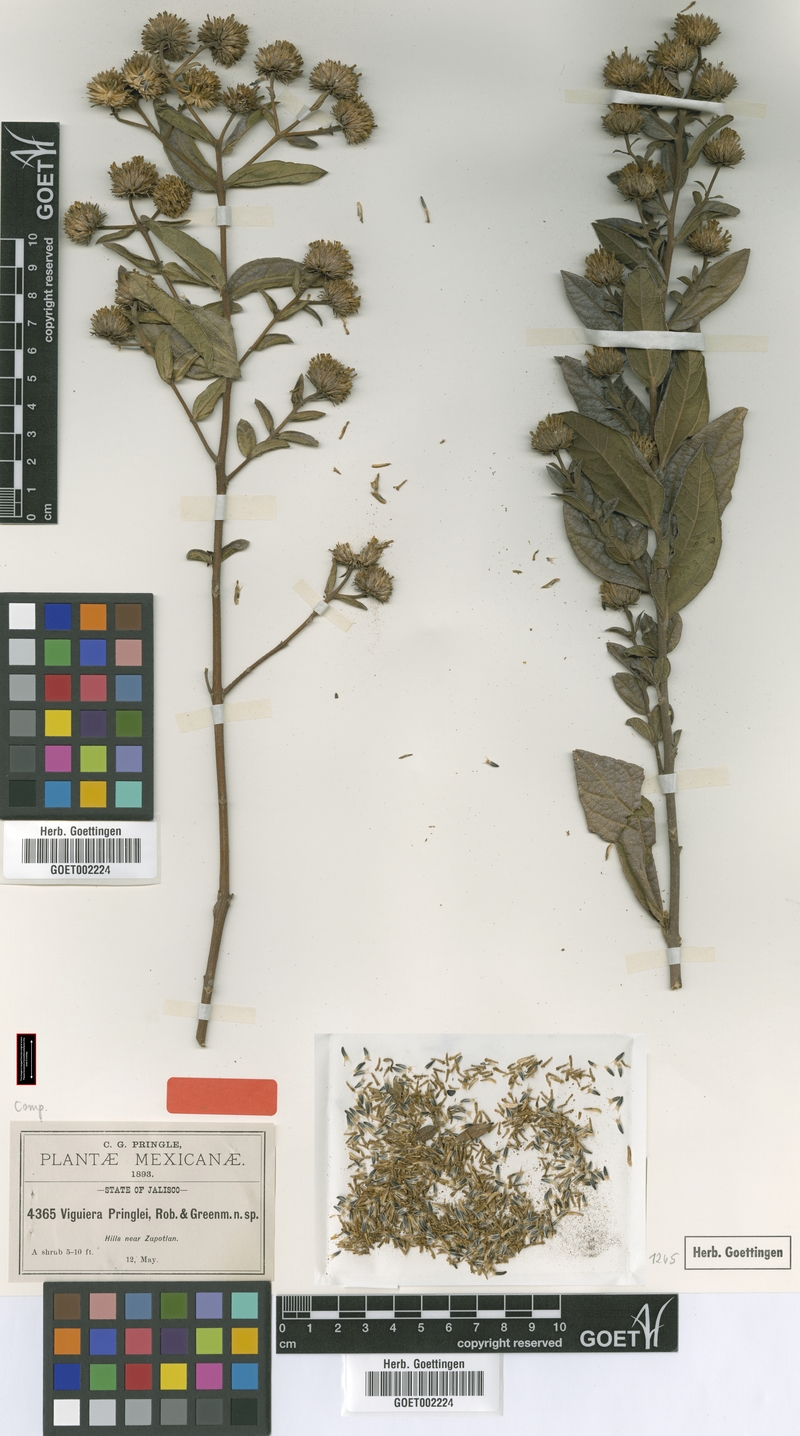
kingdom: Plantae
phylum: Tracheophyta
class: Magnoliopsida
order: Asterales
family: Asteraceae
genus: Aldama
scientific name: Aldama pringlei
